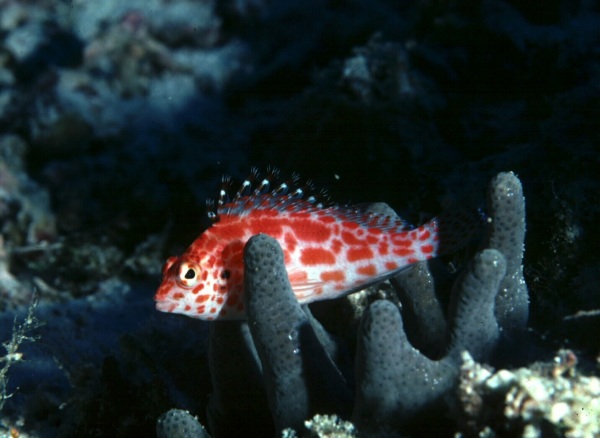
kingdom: Animalia
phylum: Chordata
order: Perciformes
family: Cirrhitidae
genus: Cirrhitichthys
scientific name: Cirrhitichthys oxycephalus
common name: Spotted hawkfish
